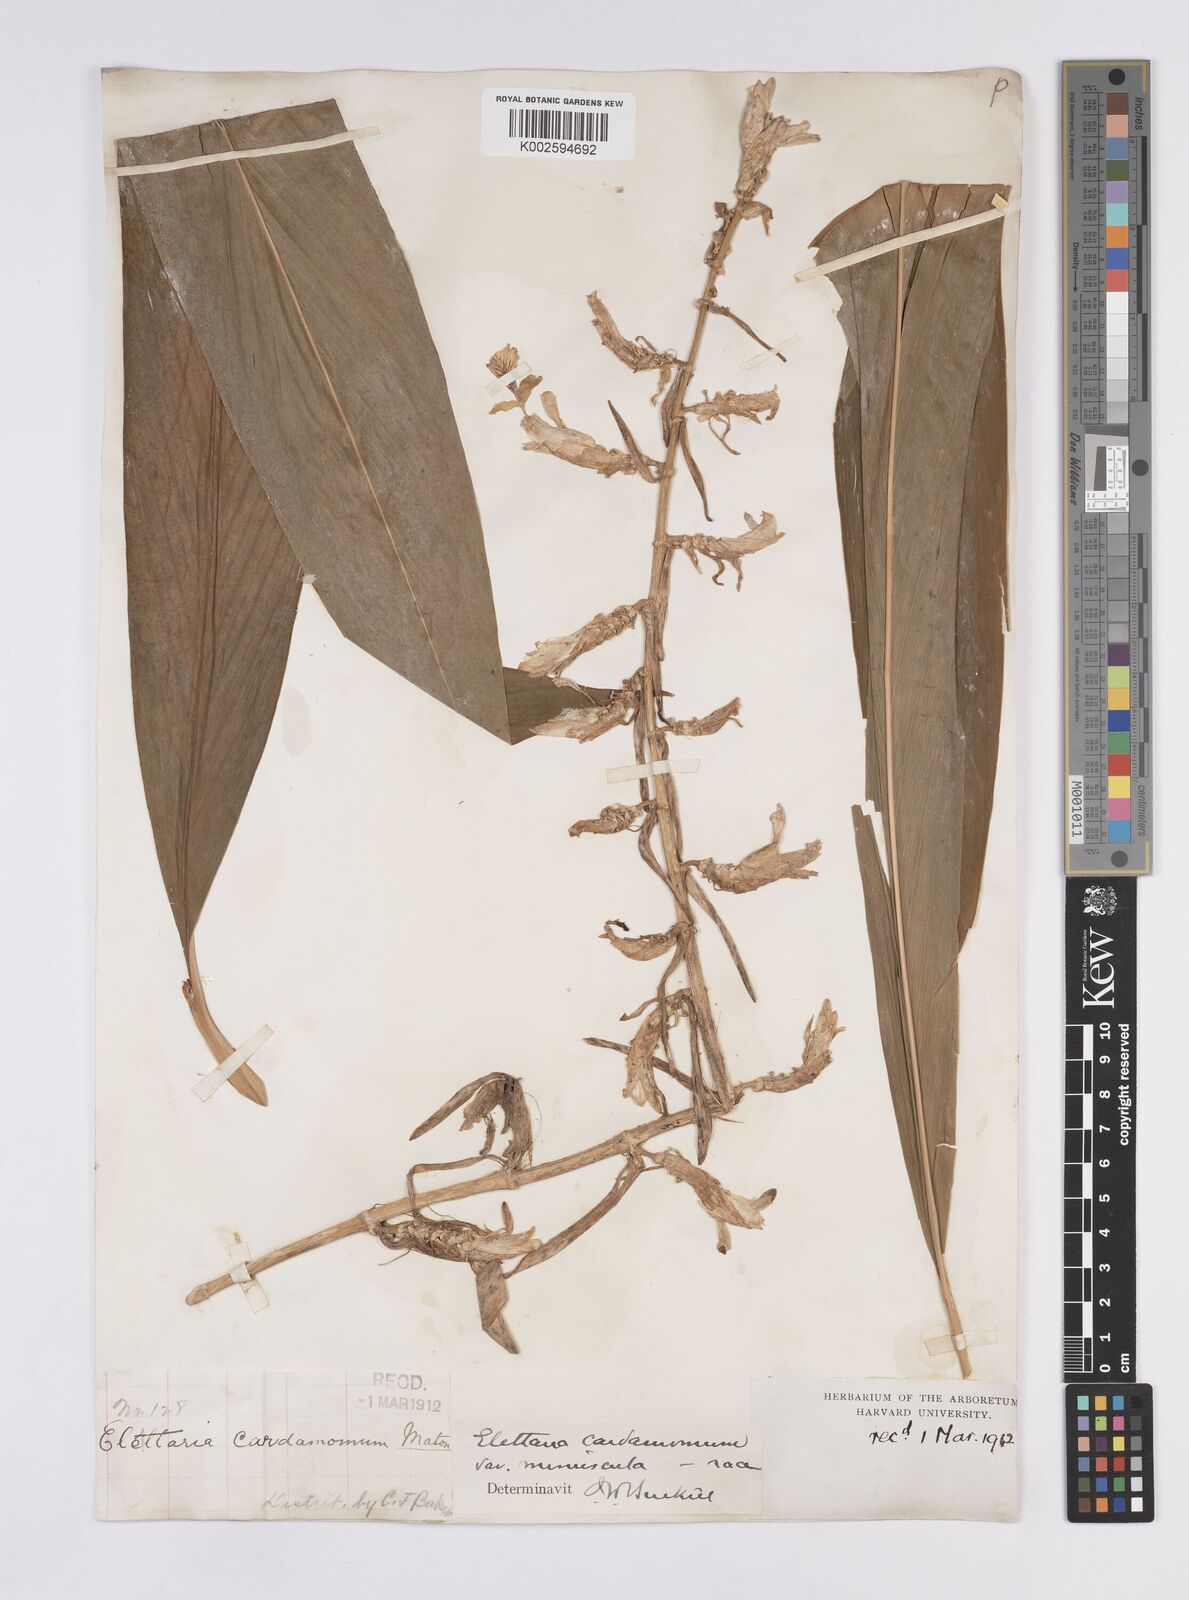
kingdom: Plantae
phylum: Tracheophyta
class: Liliopsida
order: Zingiberales
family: Zingiberaceae
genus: Elettaria
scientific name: Elettaria cardamomum
